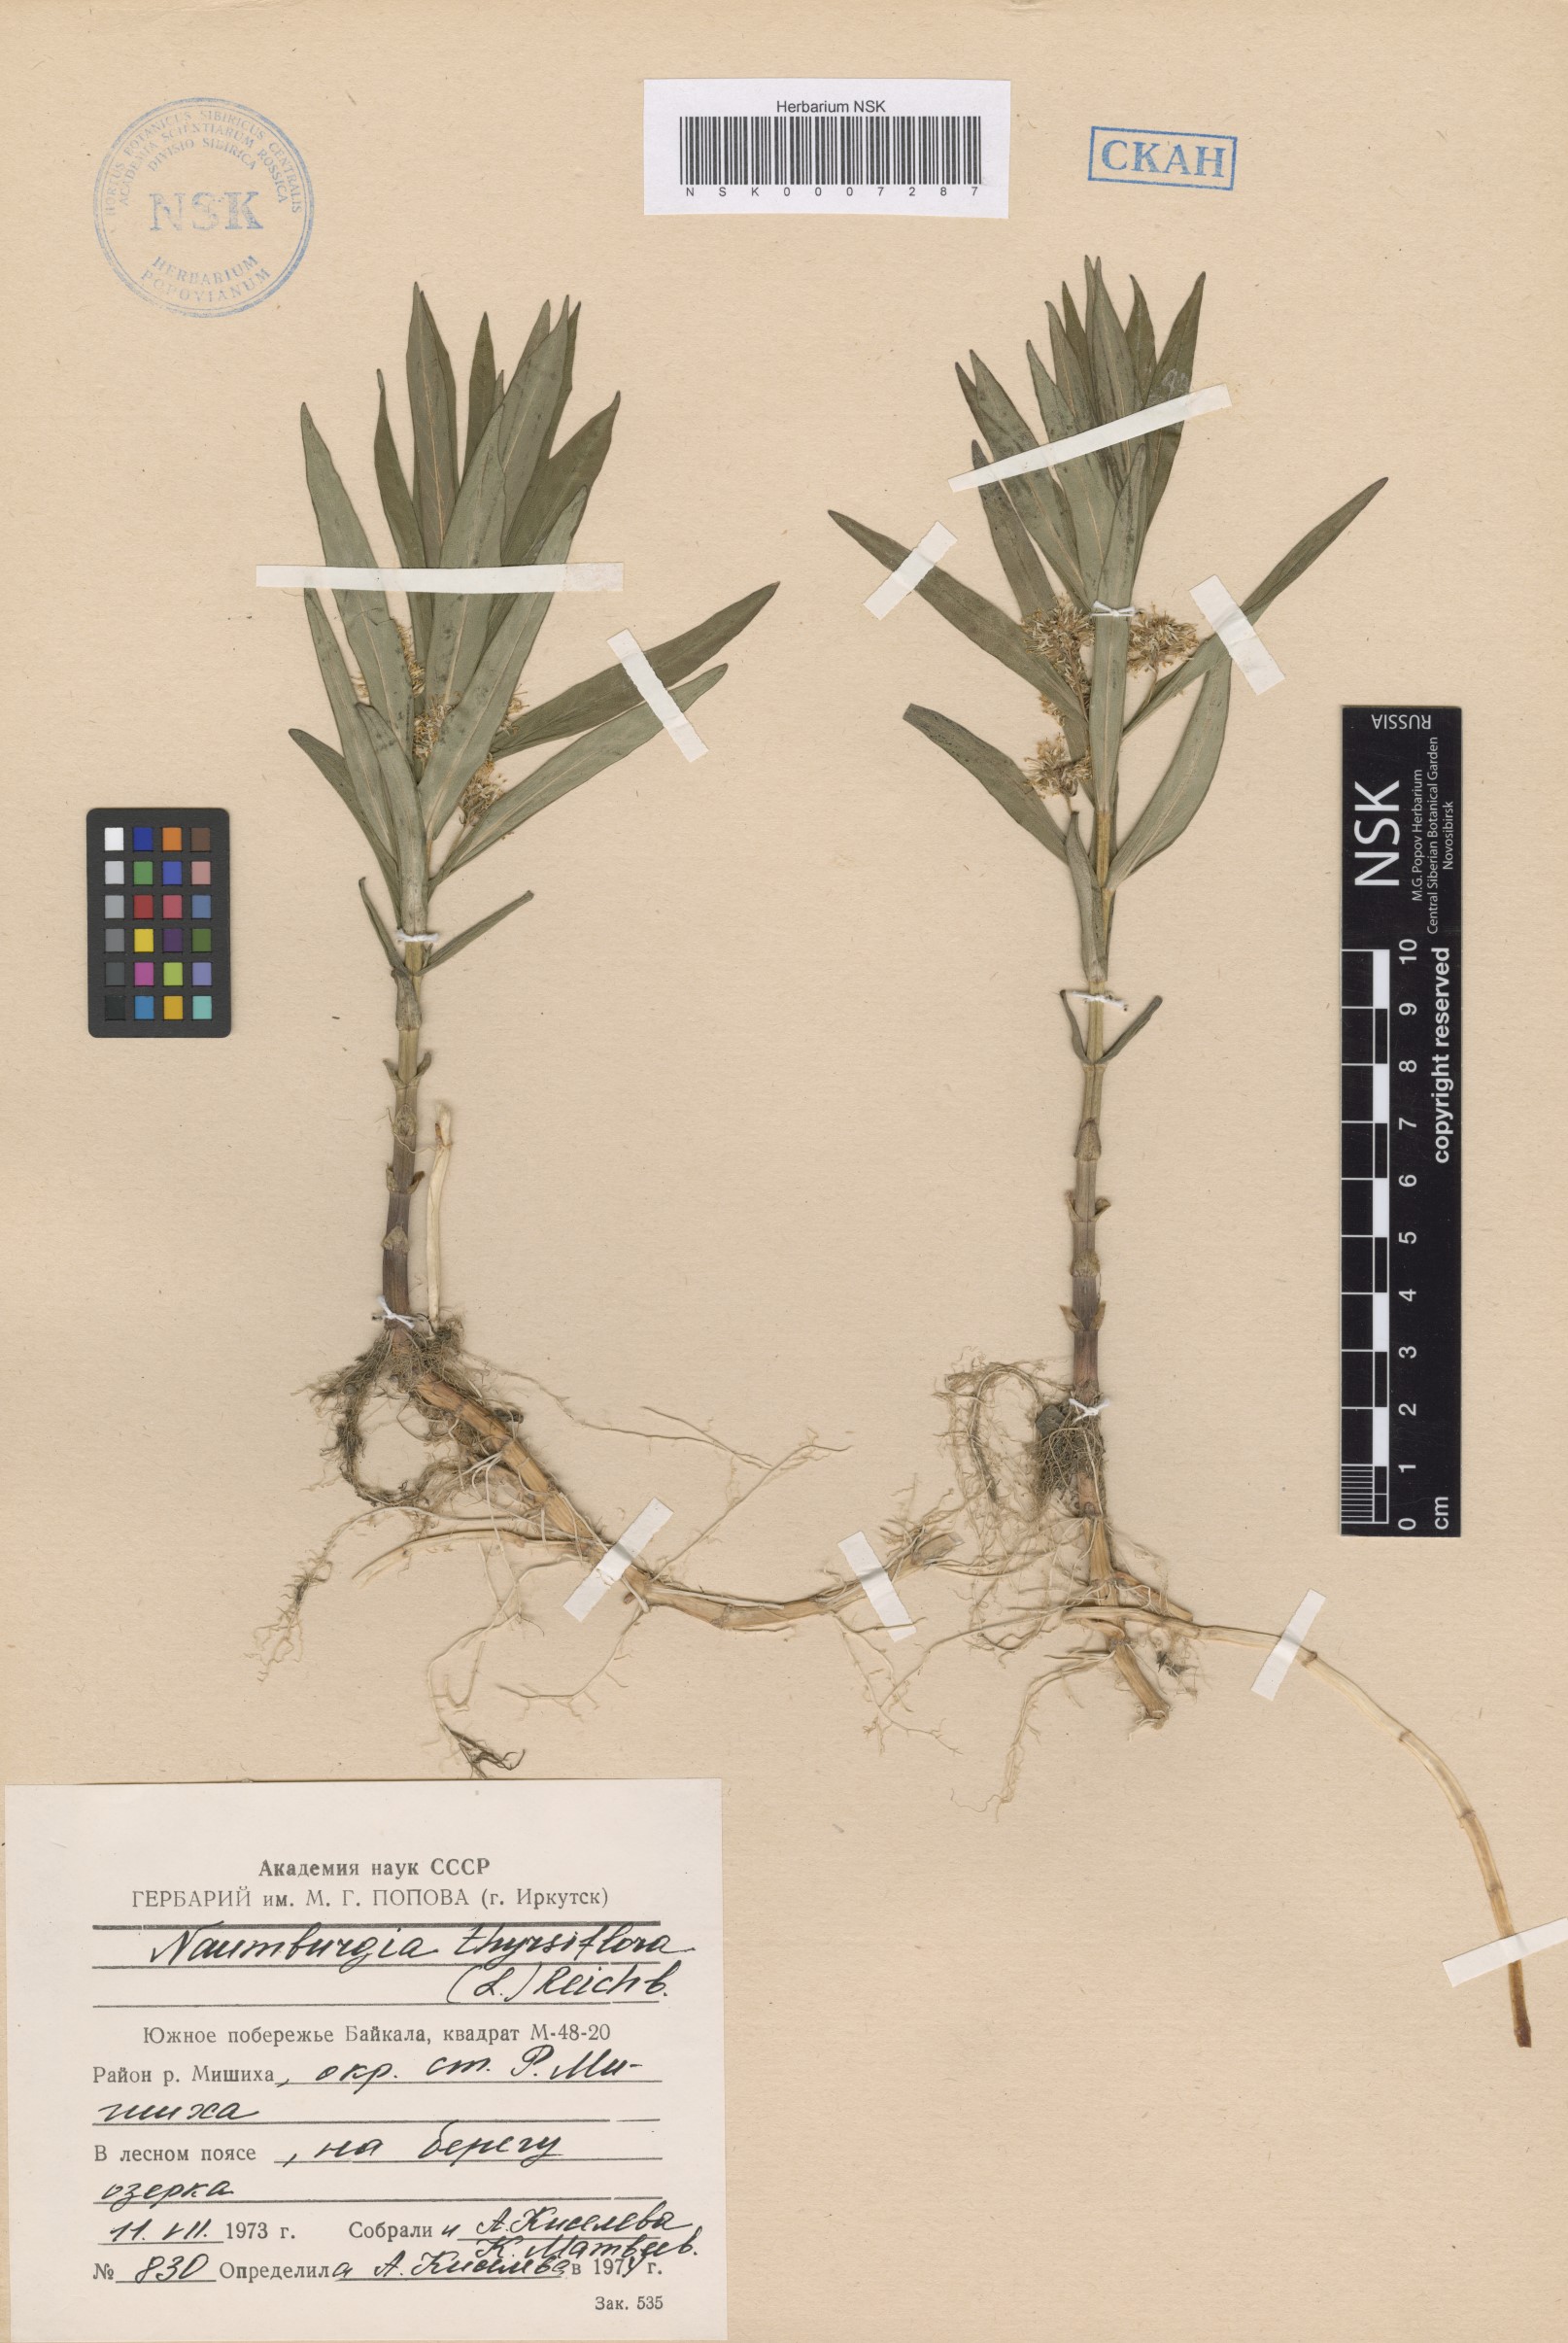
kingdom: Plantae
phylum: Tracheophyta
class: Magnoliopsida
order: Ericales
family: Primulaceae
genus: Lysimachia
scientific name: Lysimachia thyrsiflora
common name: Tufted loosestrife
